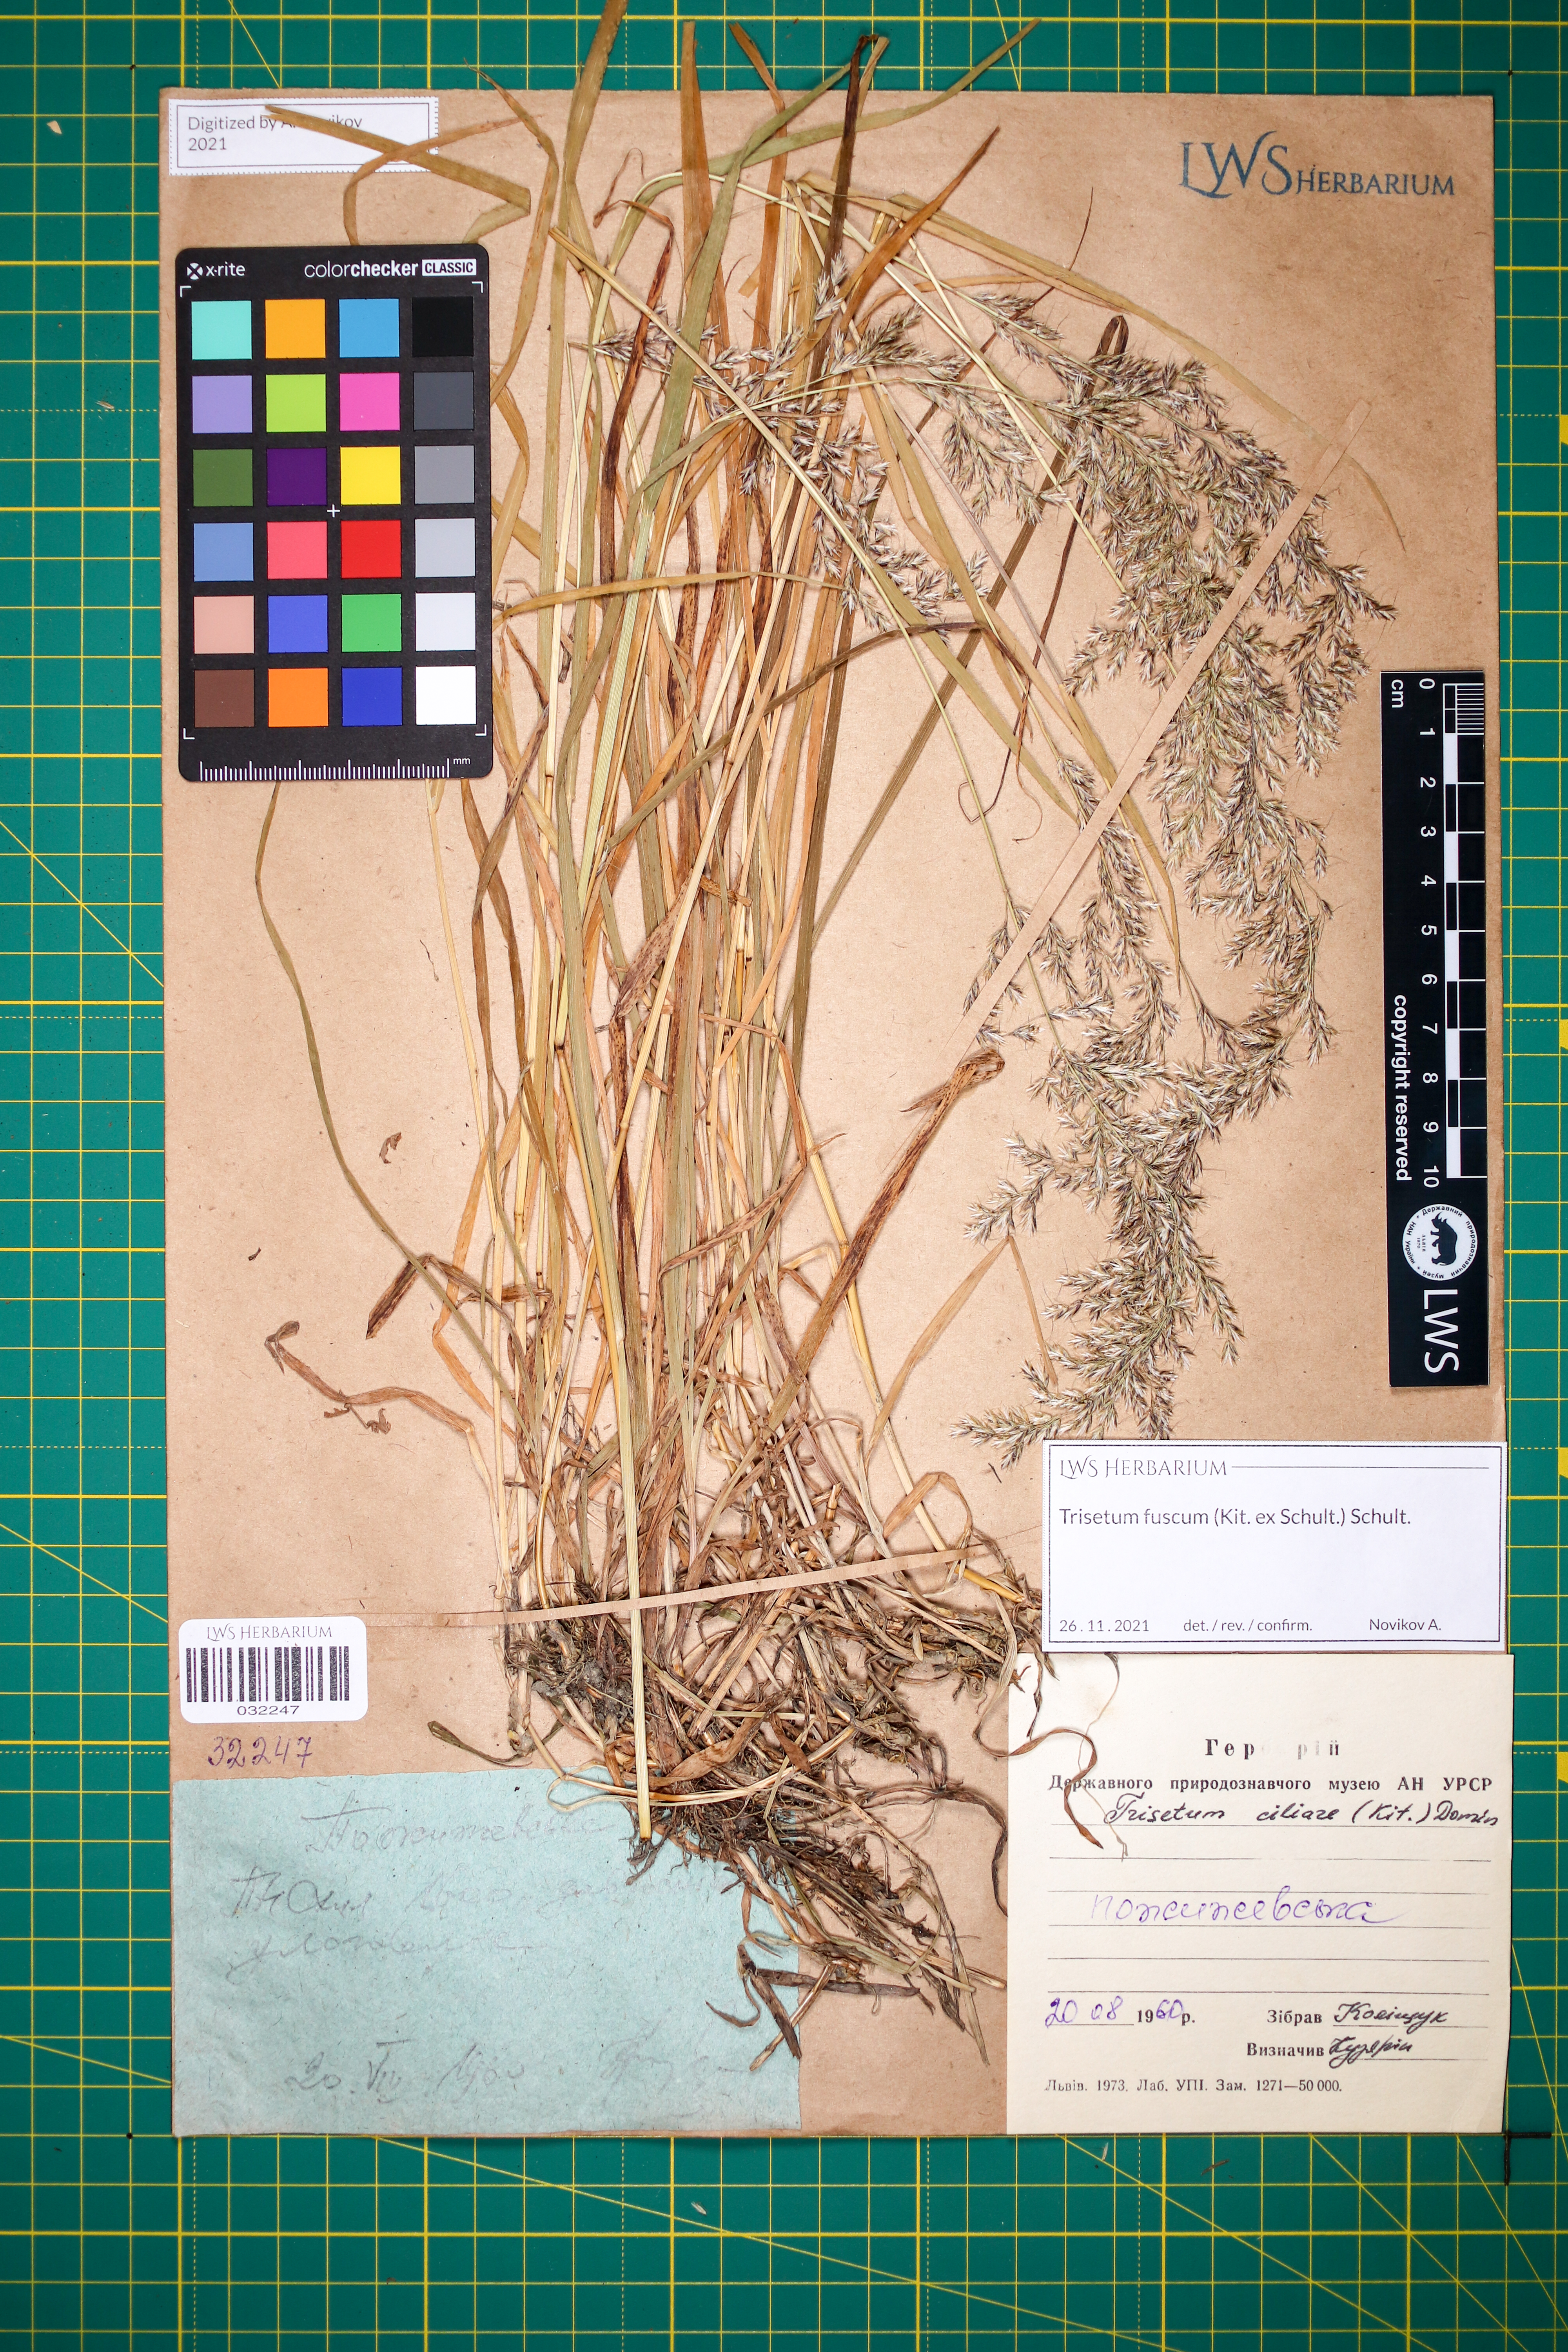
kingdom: Plantae
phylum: Tracheophyta
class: Liliopsida
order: Poales
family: Poaceae
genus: Trisetum
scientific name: Trisetum fuscum
